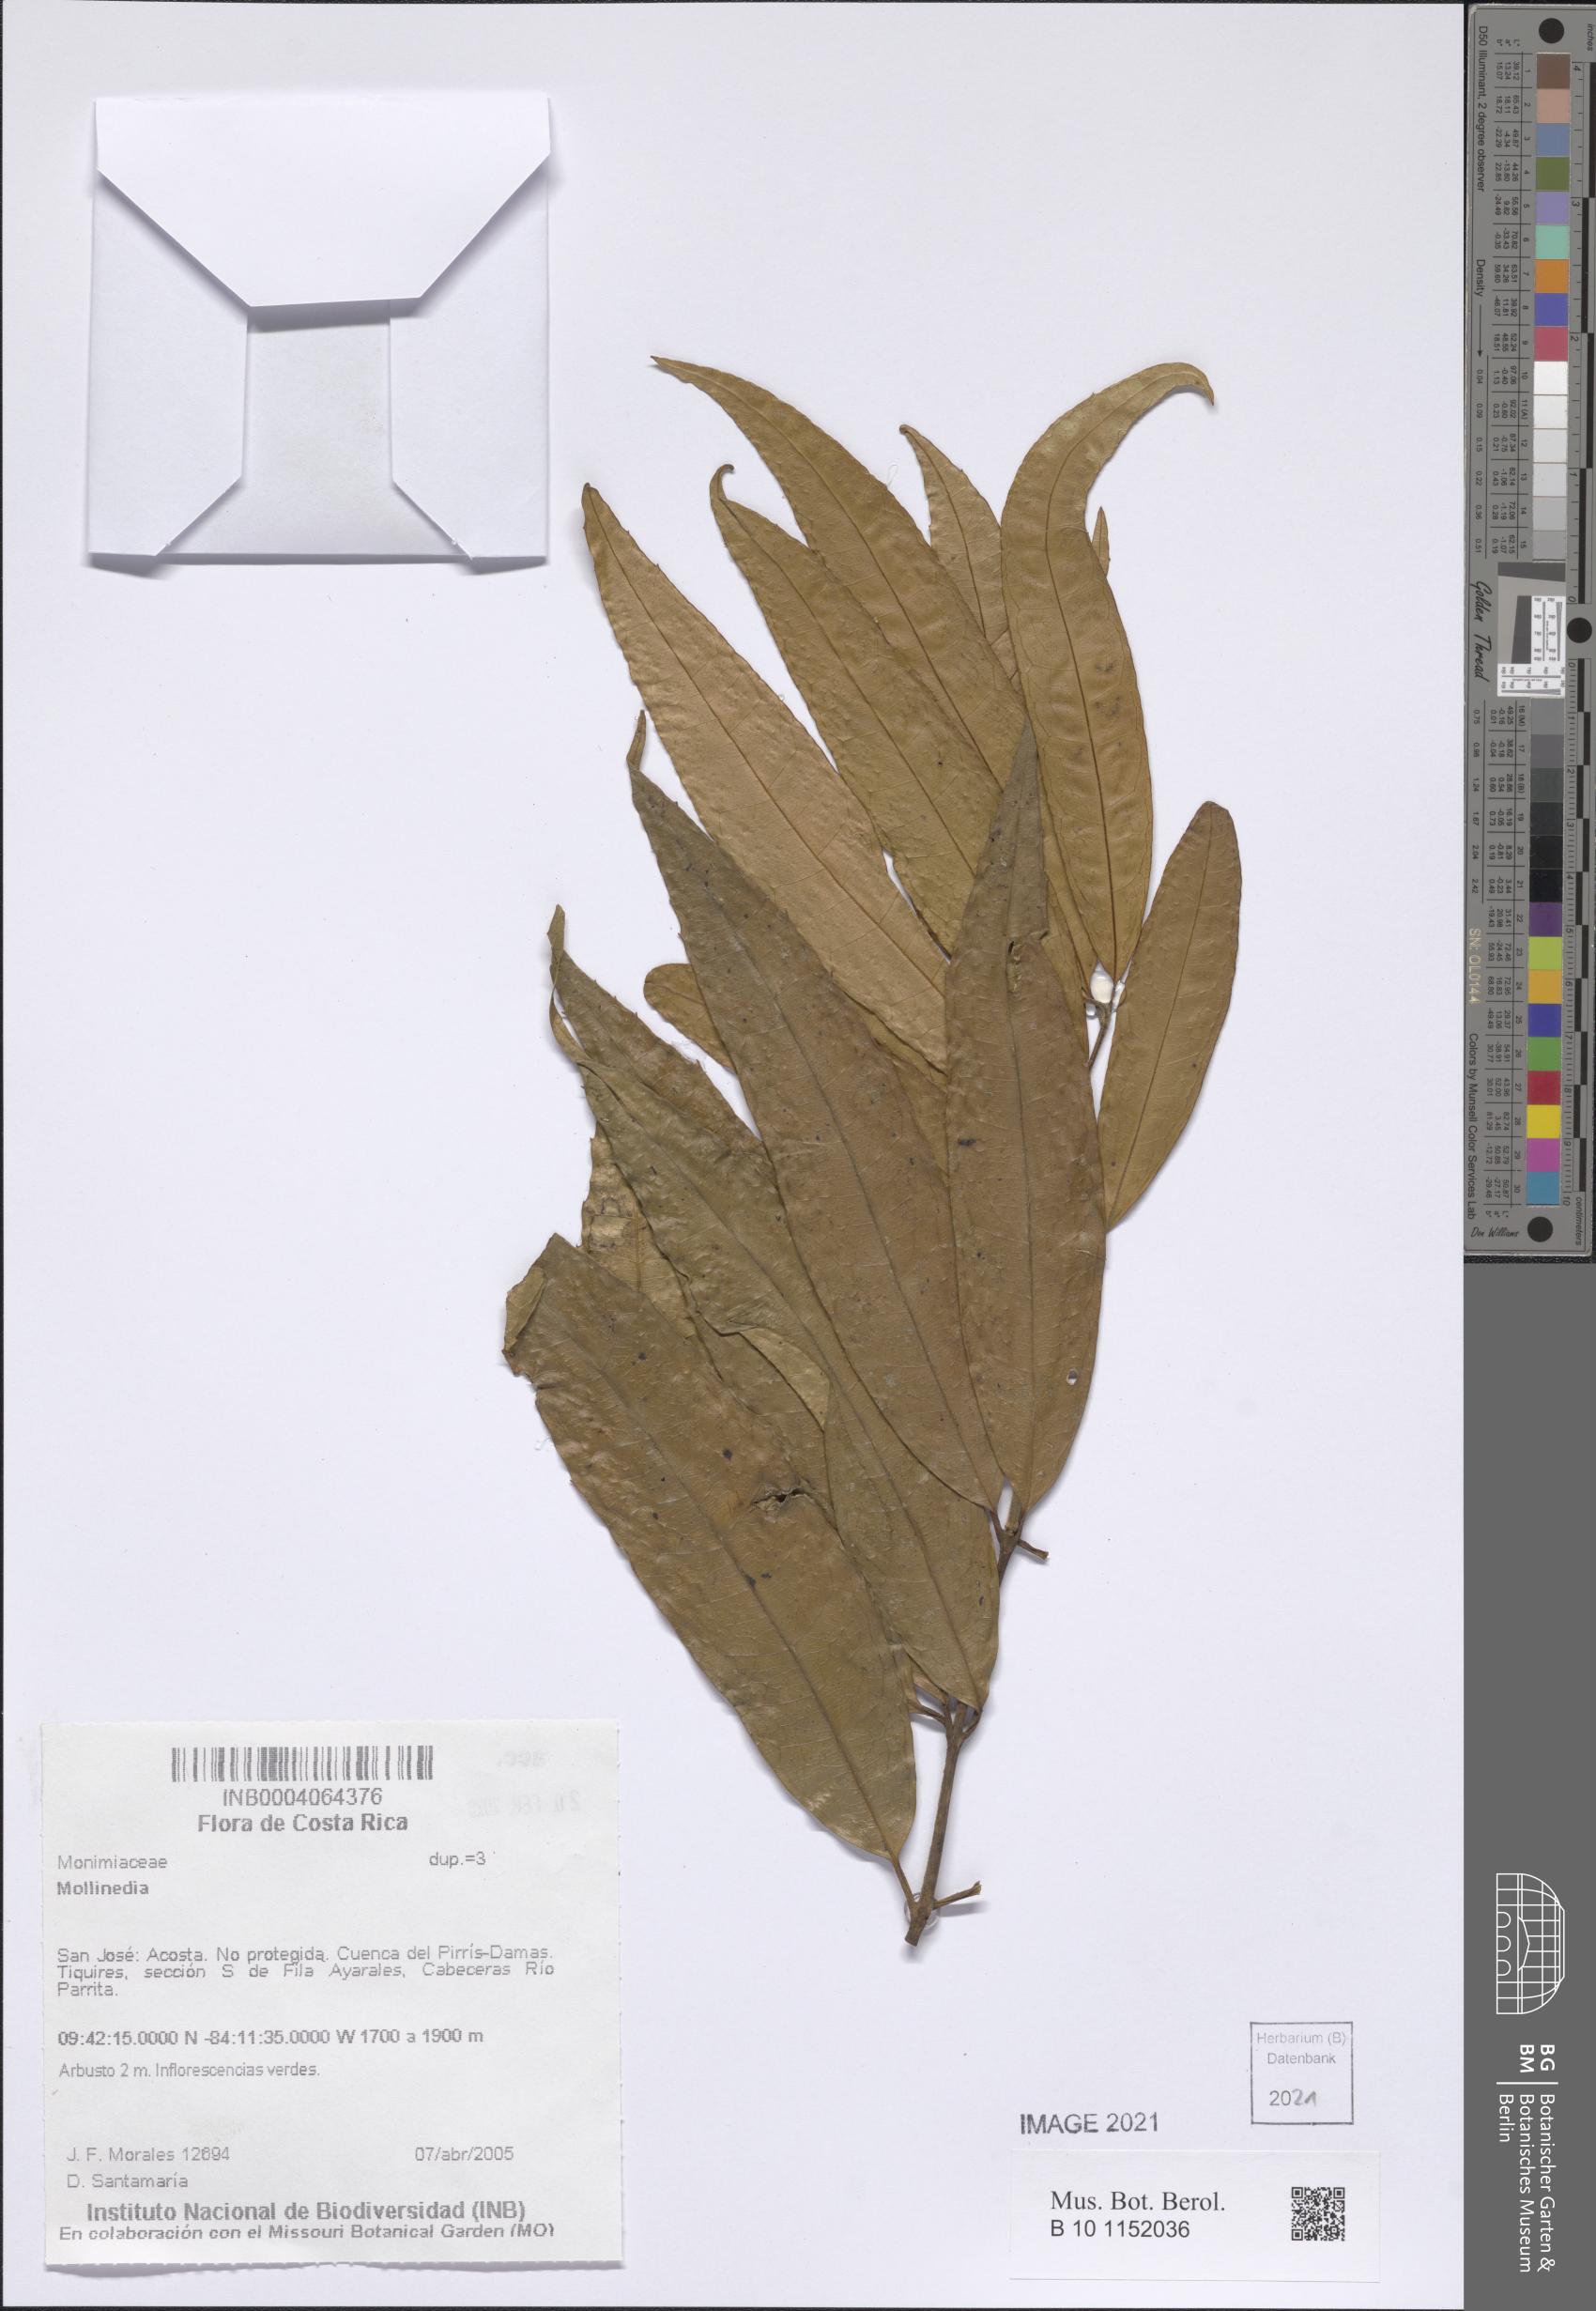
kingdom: Plantae
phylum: Tracheophyta
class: Magnoliopsida
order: Laurales
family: Monimiaceae
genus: Mollinedia
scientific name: Mollinedia
